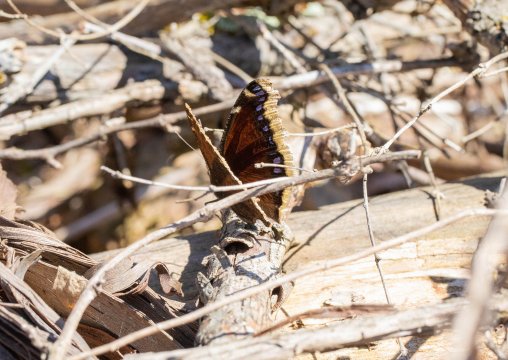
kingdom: Animalia
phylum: Arthropoda
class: Insecta
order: Lepidoptera
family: Nymphalidae
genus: Nymphalis
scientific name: Nymphalis antiopa
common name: Mourning Cloak
